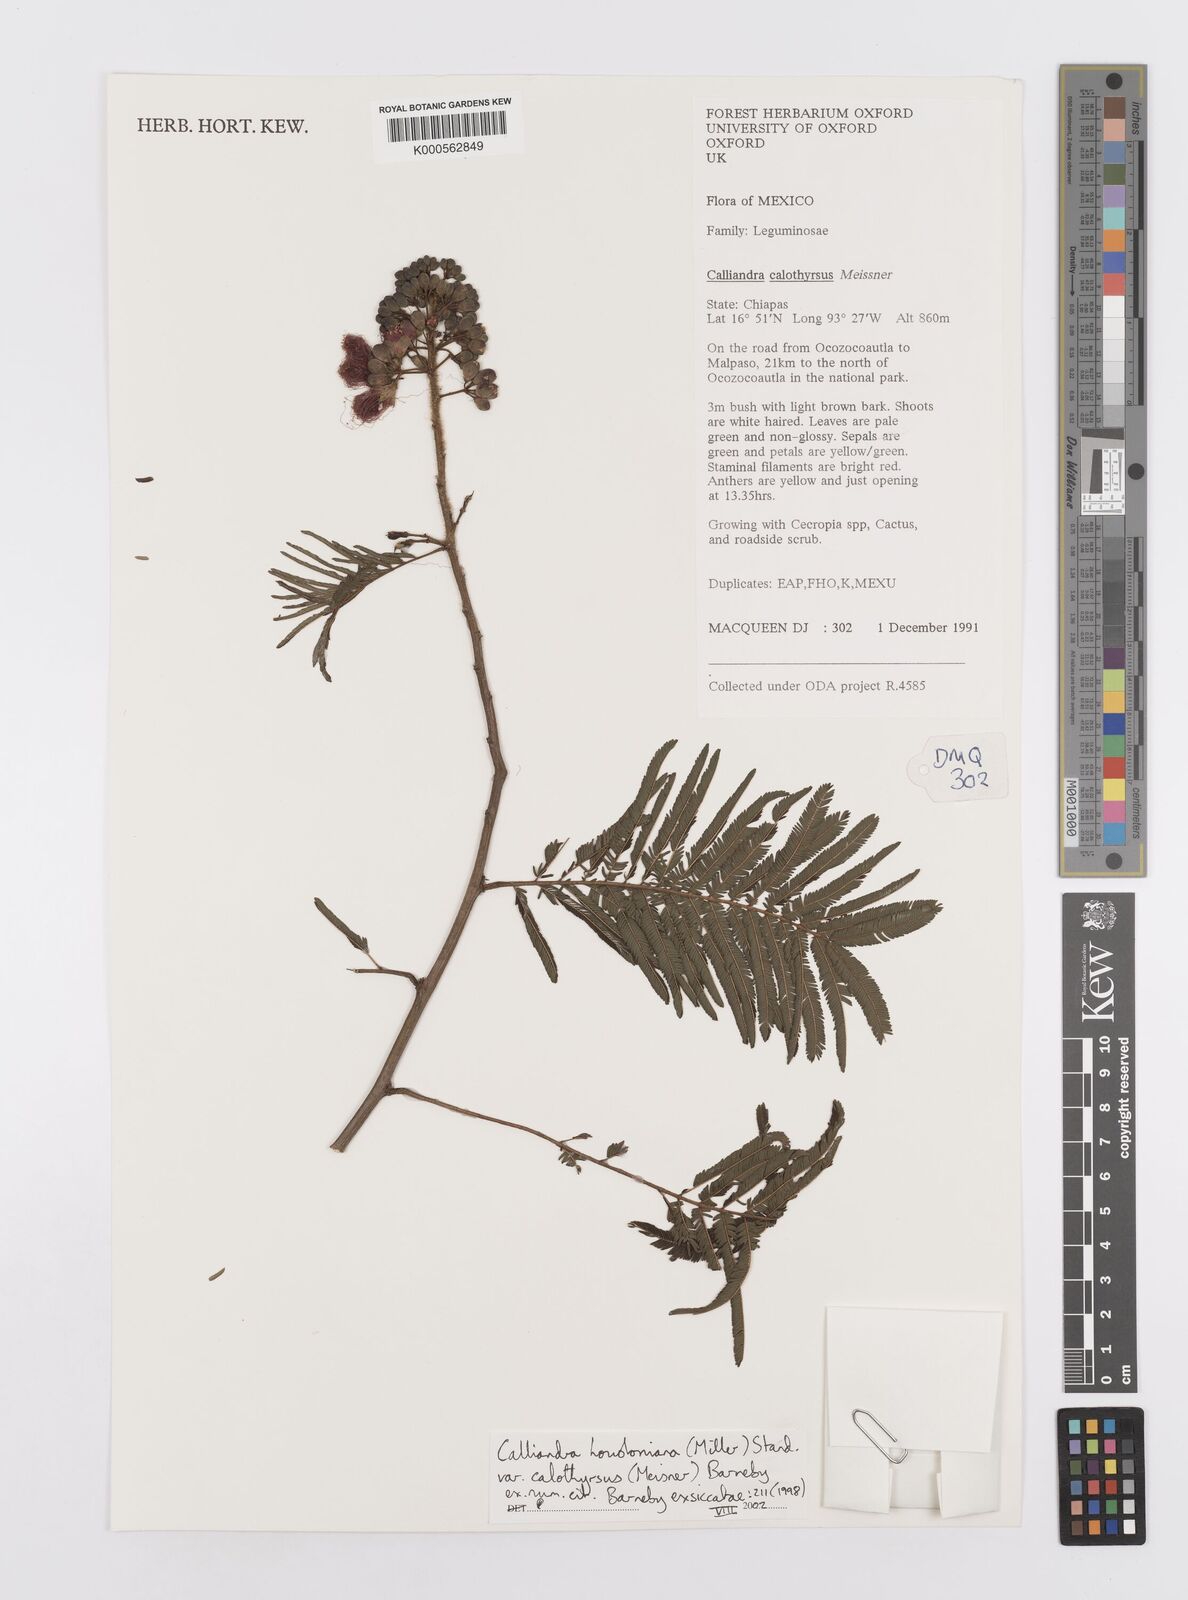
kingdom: Plantae
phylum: Tracheophyta
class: Magnoliopsida
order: Fabales
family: Fabaceae
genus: Calliandra
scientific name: Calliandra houstoniana
